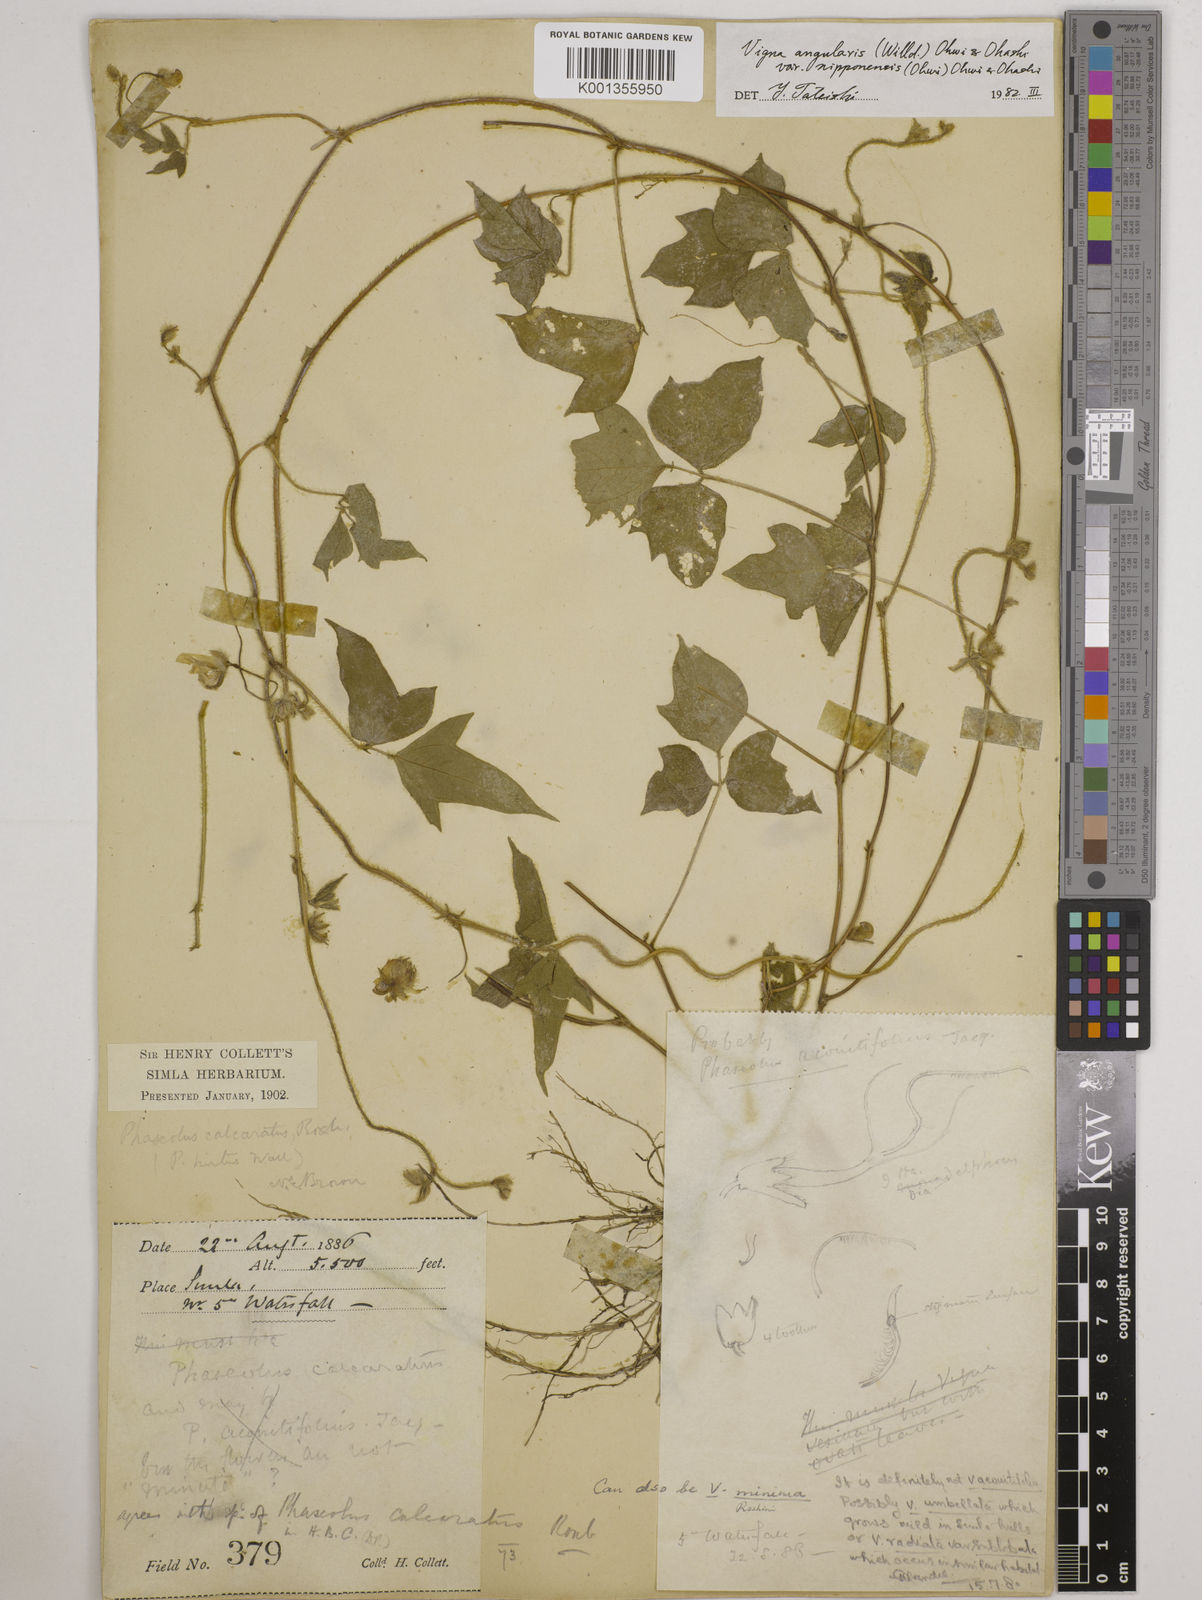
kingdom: Plantae
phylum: Tracheophyta
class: Magnoliopsida
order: Fabales
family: Fabaceae
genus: Vigna
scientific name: Vigna
